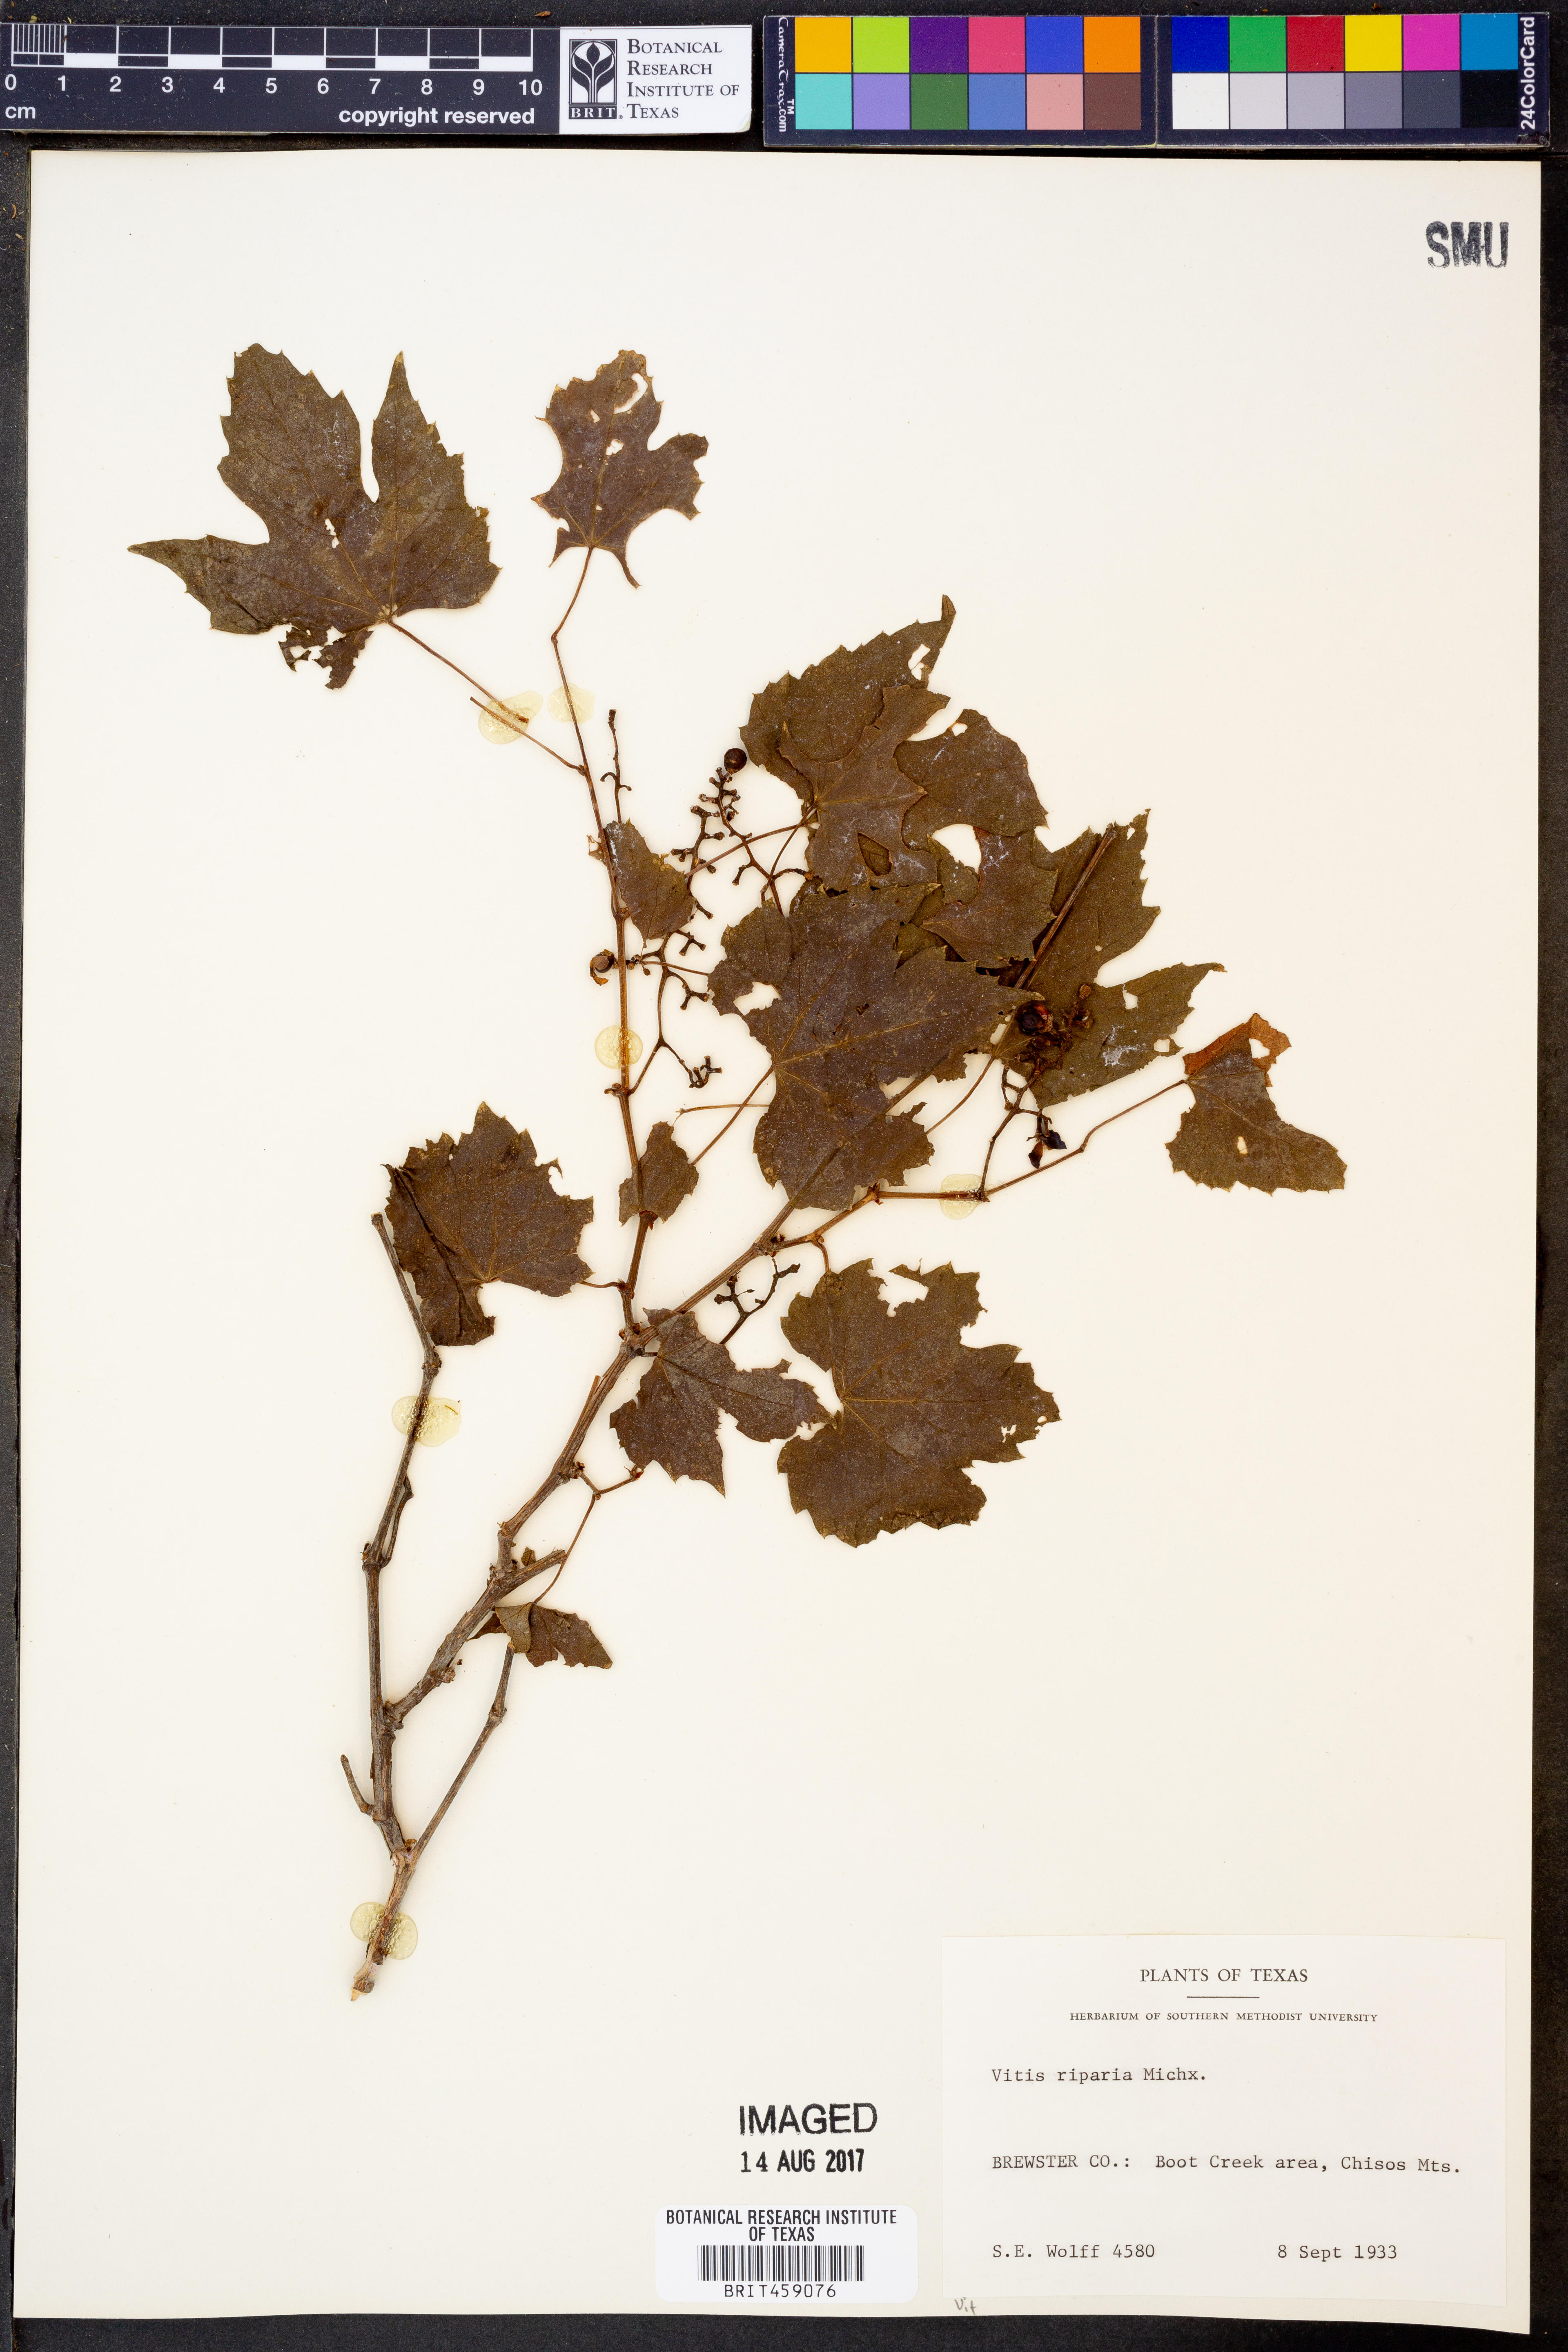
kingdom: Plantae
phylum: Tracheophyta
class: Magnoliopsida
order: Vitales
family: Vitaceae
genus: Vitis
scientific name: Vitis riparia
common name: Frost grape
